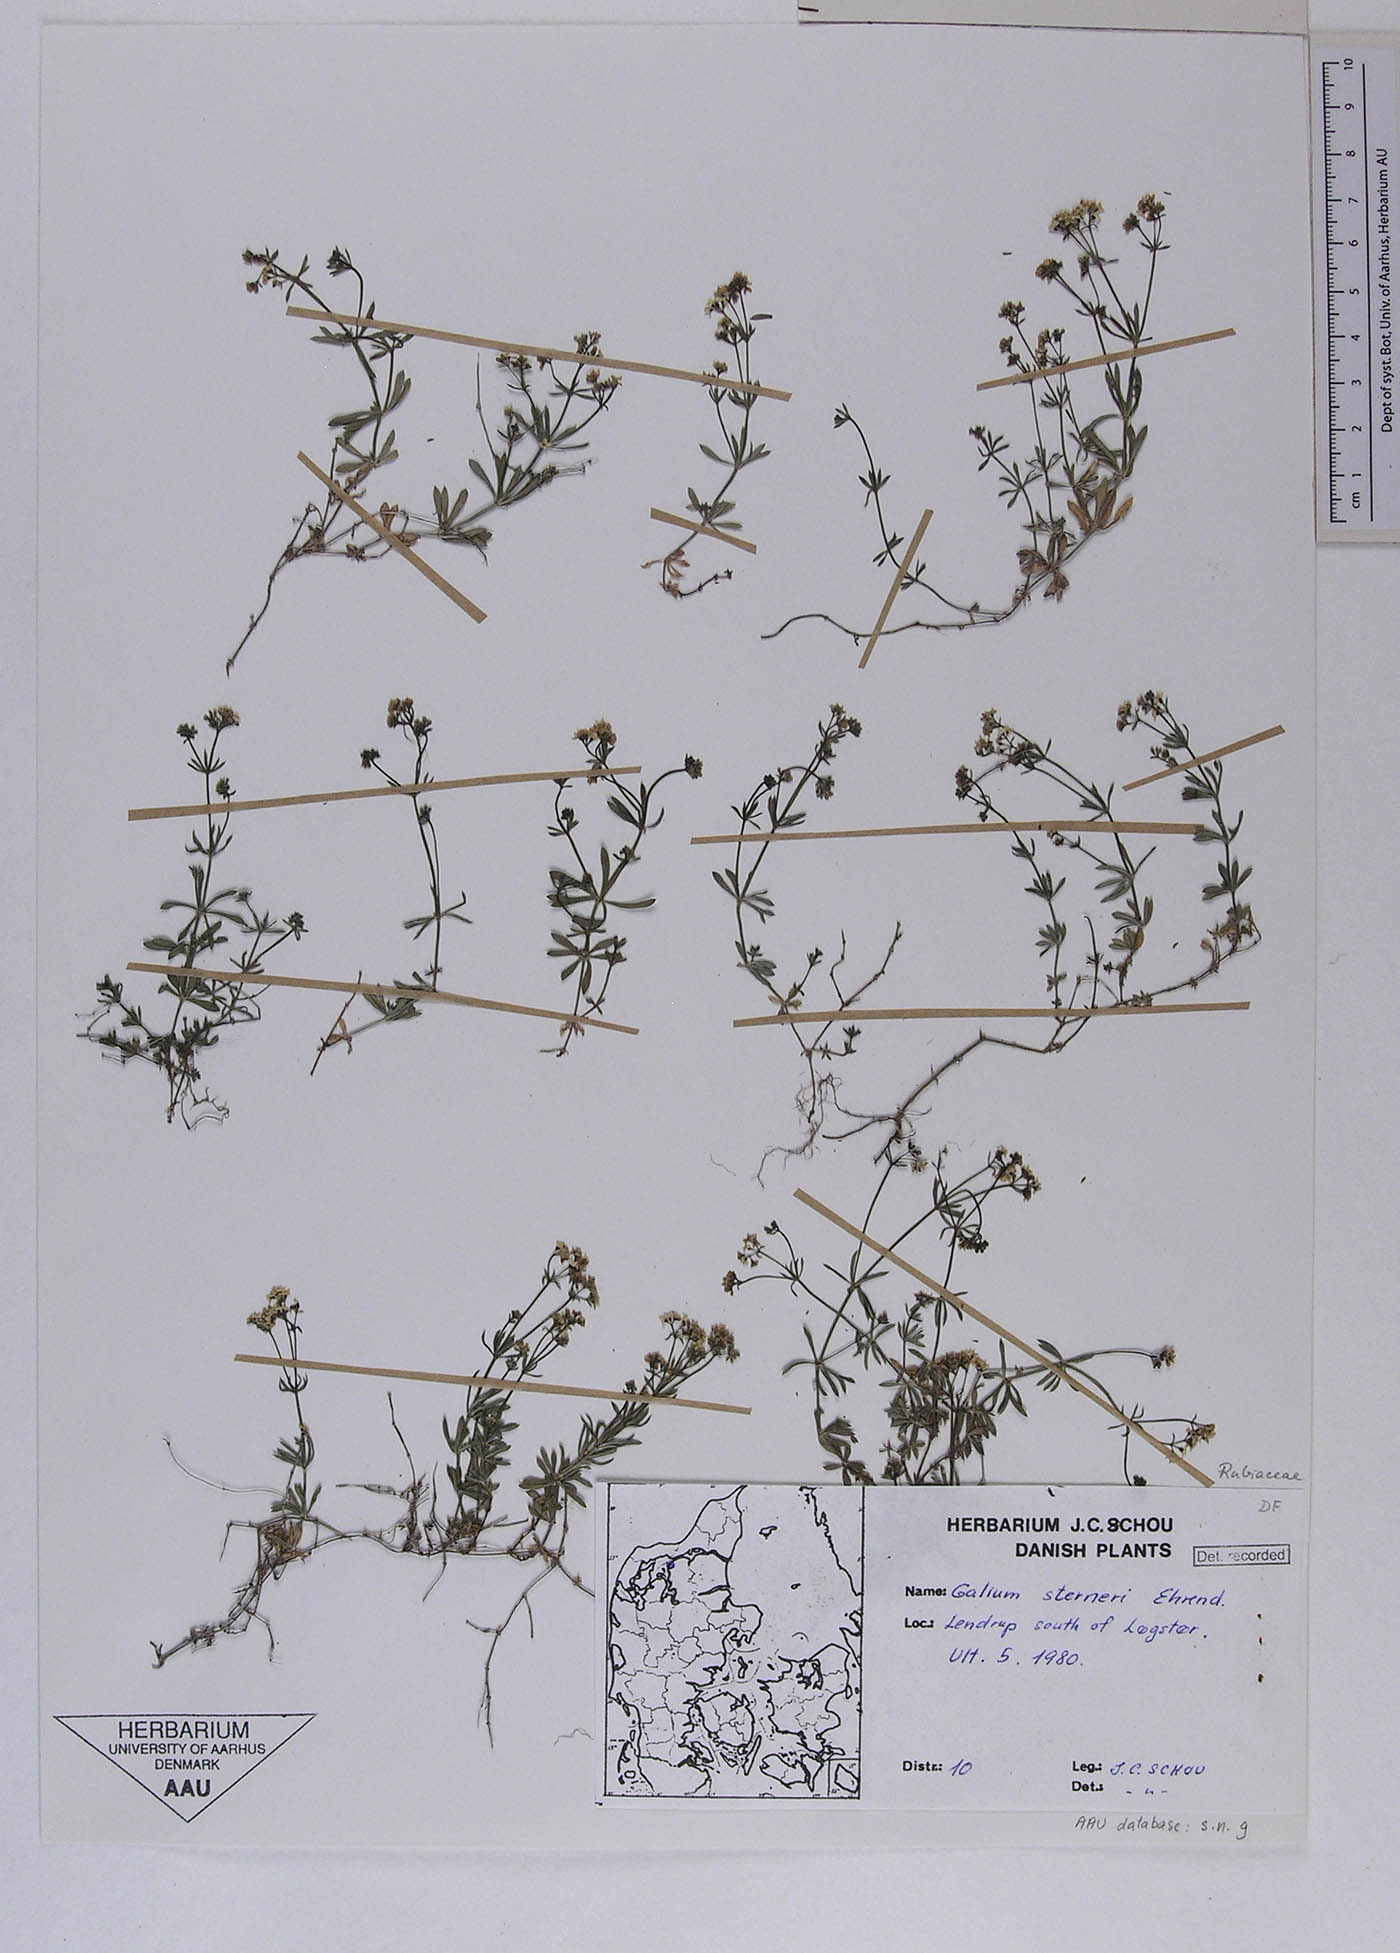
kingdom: Plantae
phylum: Tracheophyta
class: Magnoliopsida
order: Gentianales
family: Rubiaceae
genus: Galium
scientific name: Galium sterneri
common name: Limestone bedstraw
